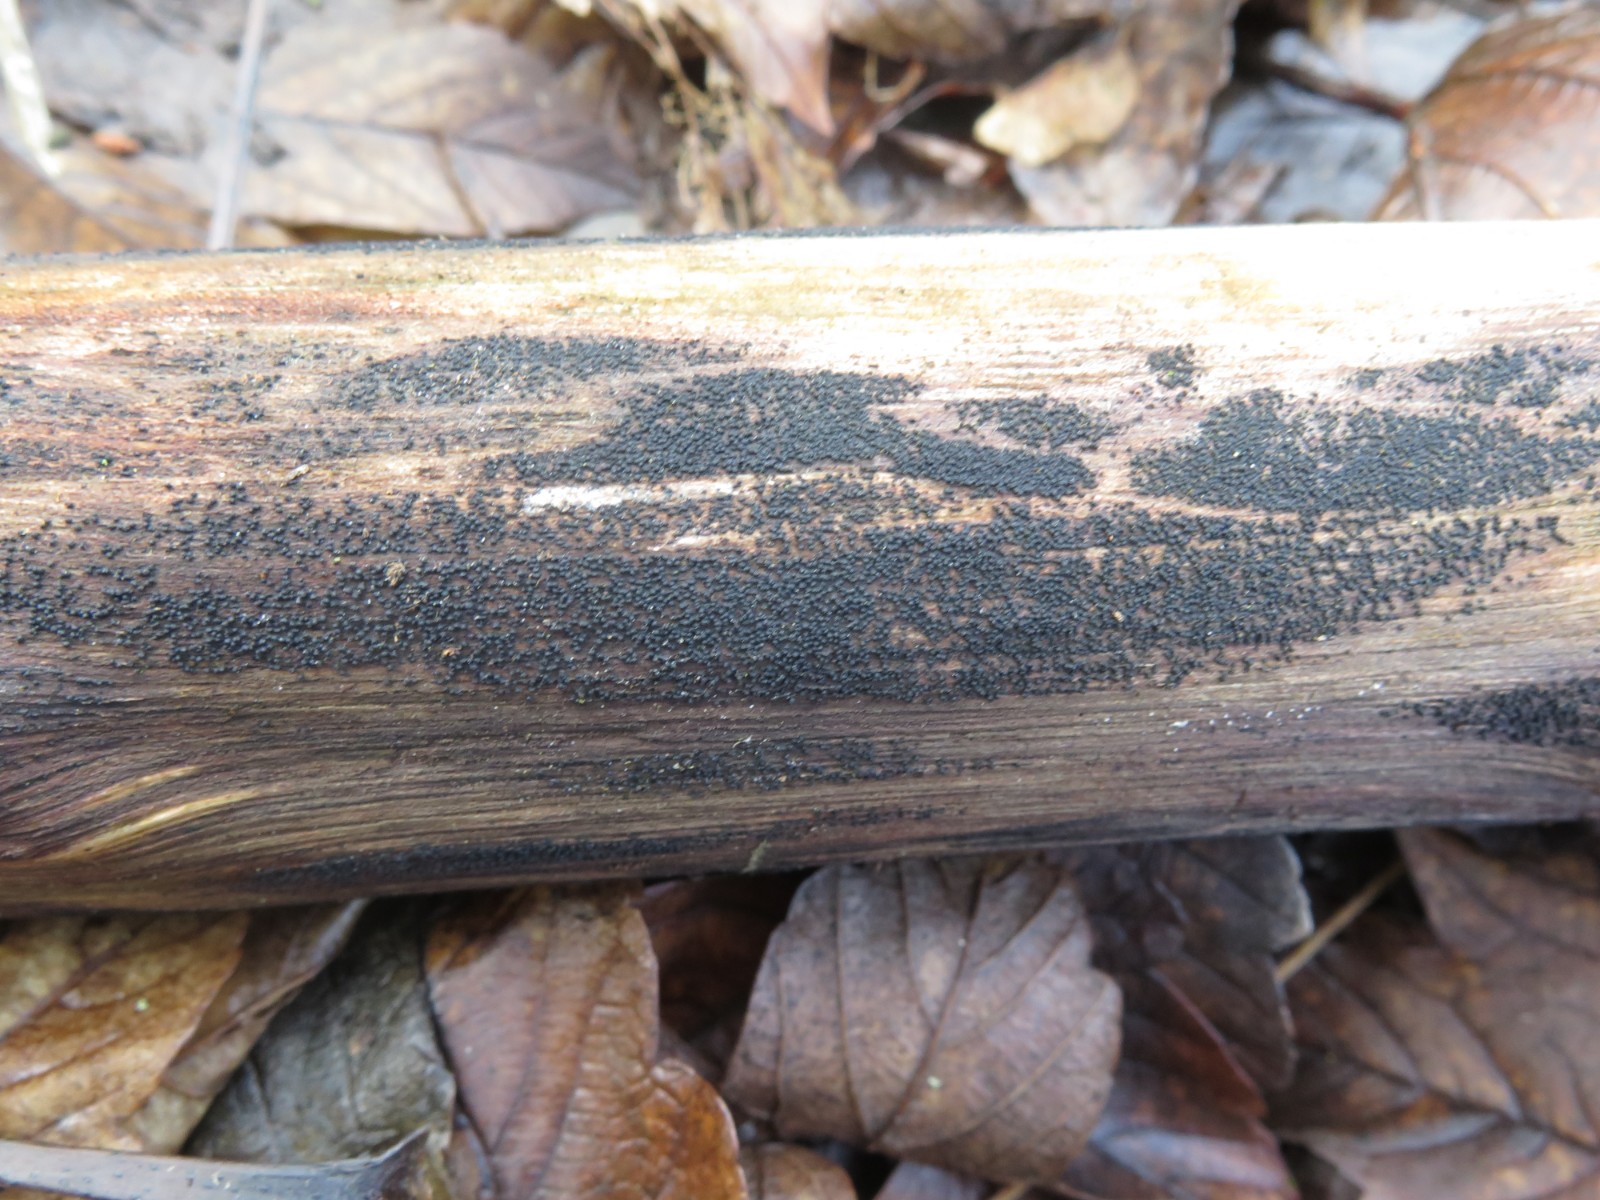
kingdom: Fungi
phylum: Ascomycota
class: Dothideomycetes
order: Pleosporales
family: Melanommataceae
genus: Melanomma
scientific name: Melanomma pulvis-pyrius
